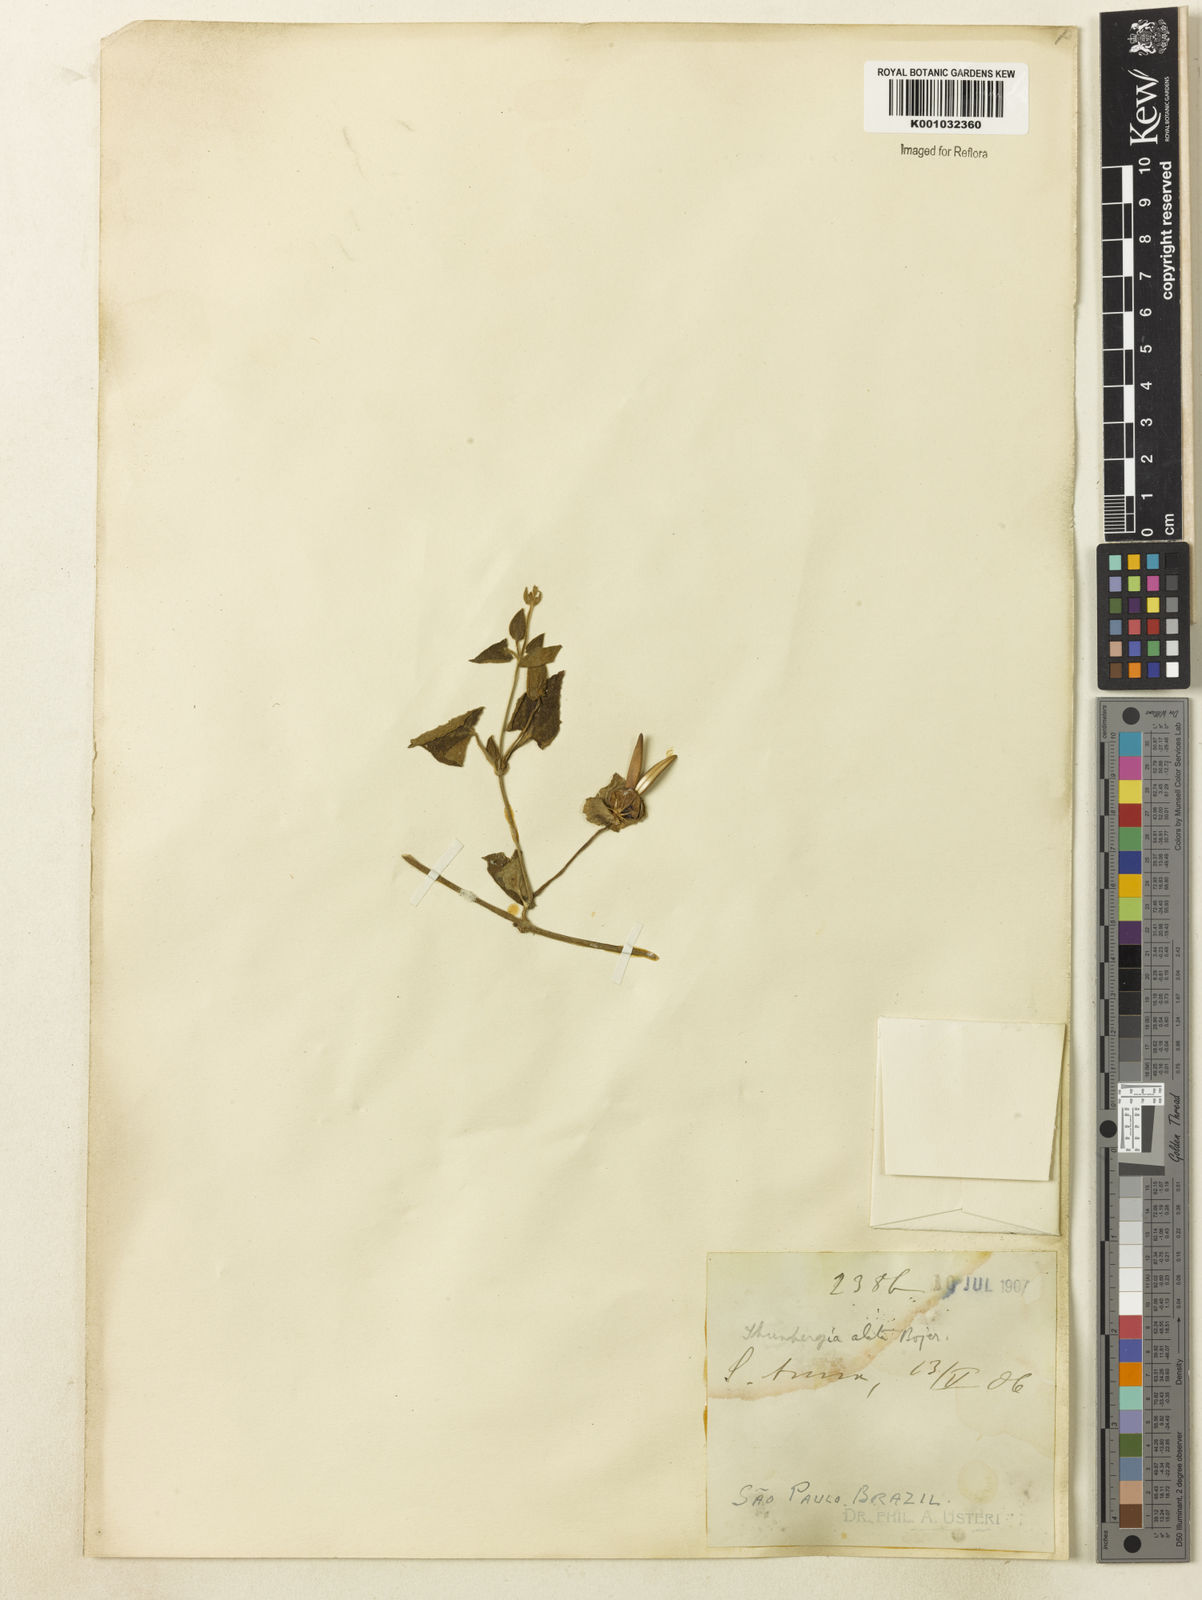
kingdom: Plantae
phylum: Tracheophyta
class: Magnoliopsida
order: Lamiales
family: Acanthaceae
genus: Thunbergia
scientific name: Thunbergia alata
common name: Blackeyed susan vine
